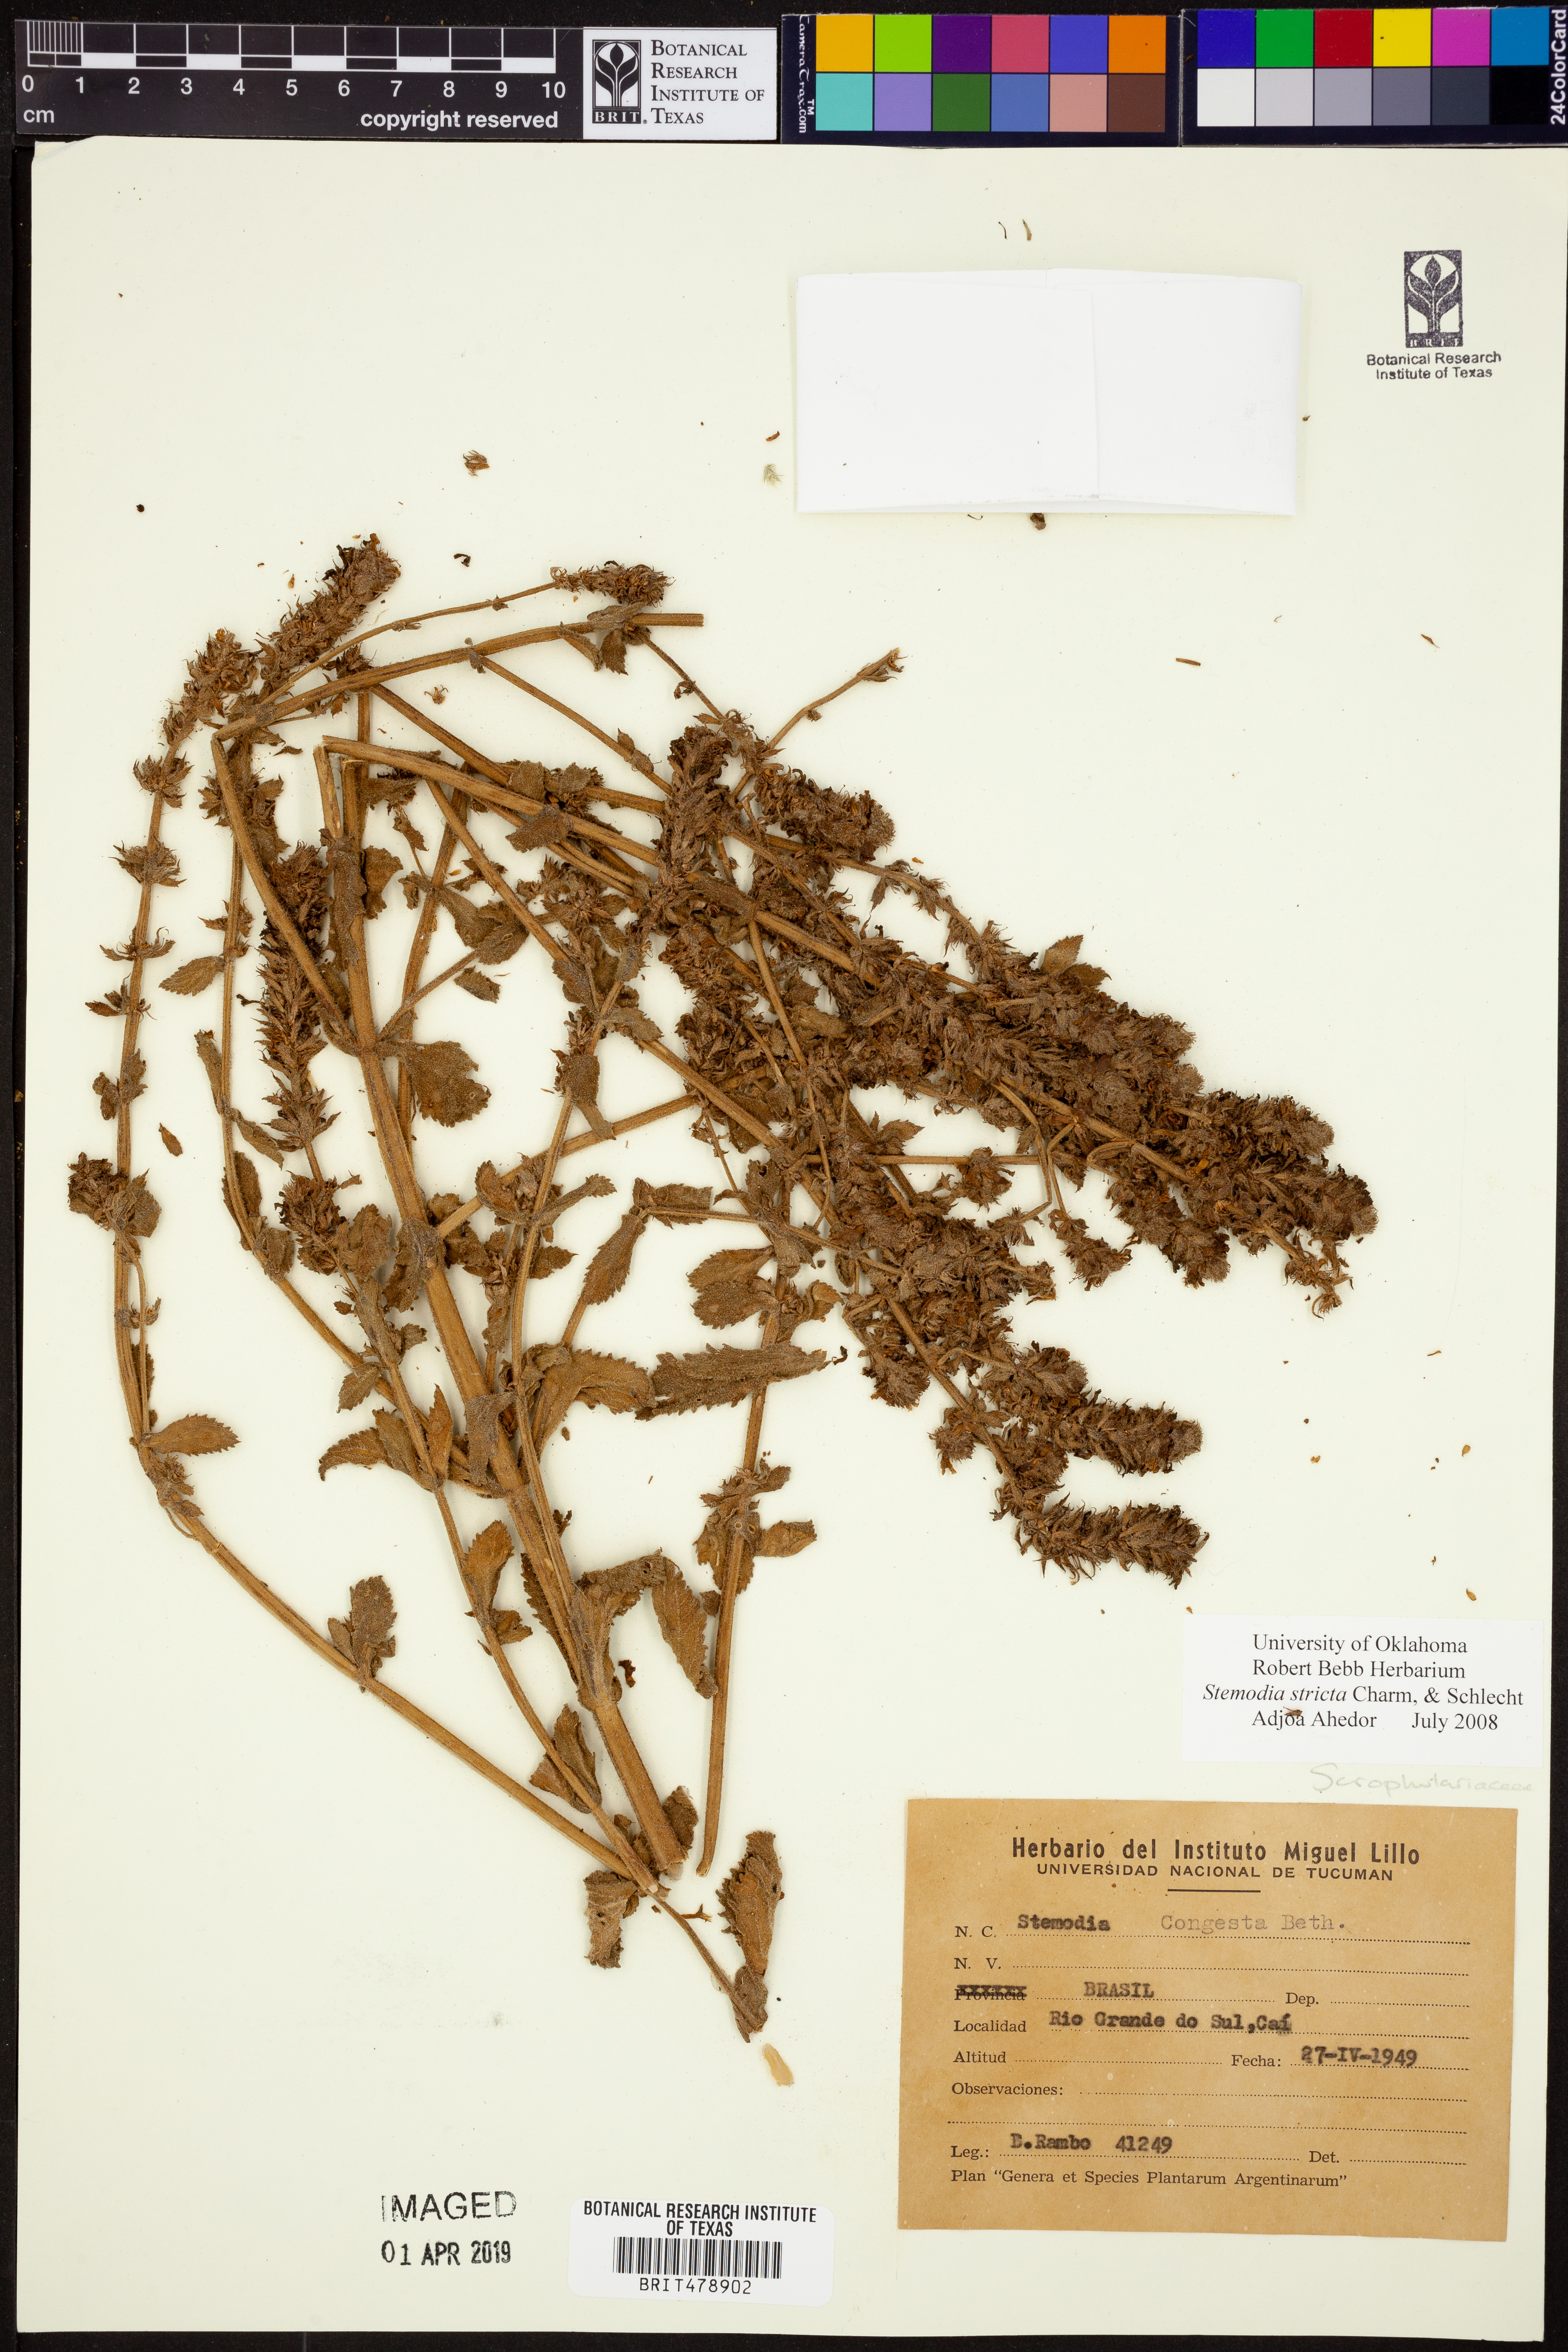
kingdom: Plantae
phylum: Tracheophyta
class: Magnoliopsida
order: Lamiales
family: Plantaginaceae
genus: Stemodia
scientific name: Stemodia stricta
